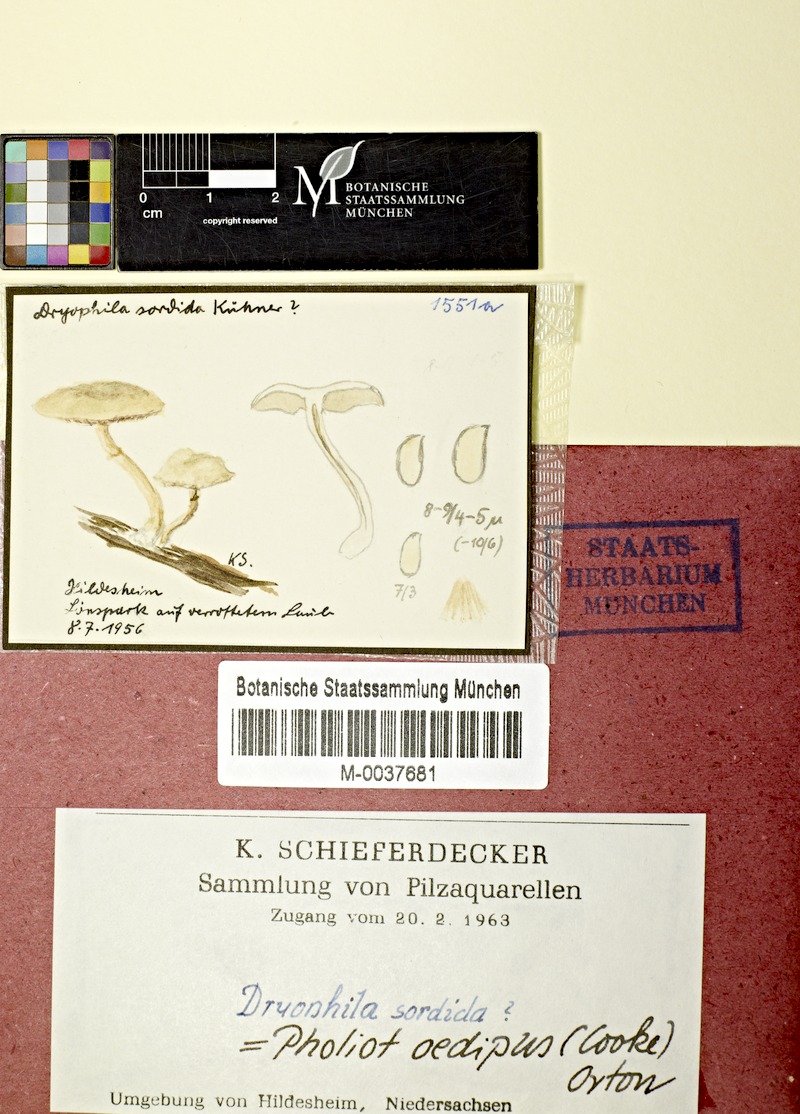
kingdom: Fungi
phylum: Basidiomycota
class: Agaricomycetes
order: Agaricales
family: Strophariaceae
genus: Meottomyces
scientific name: Meottomyces dissimulans
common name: Winter brownie
